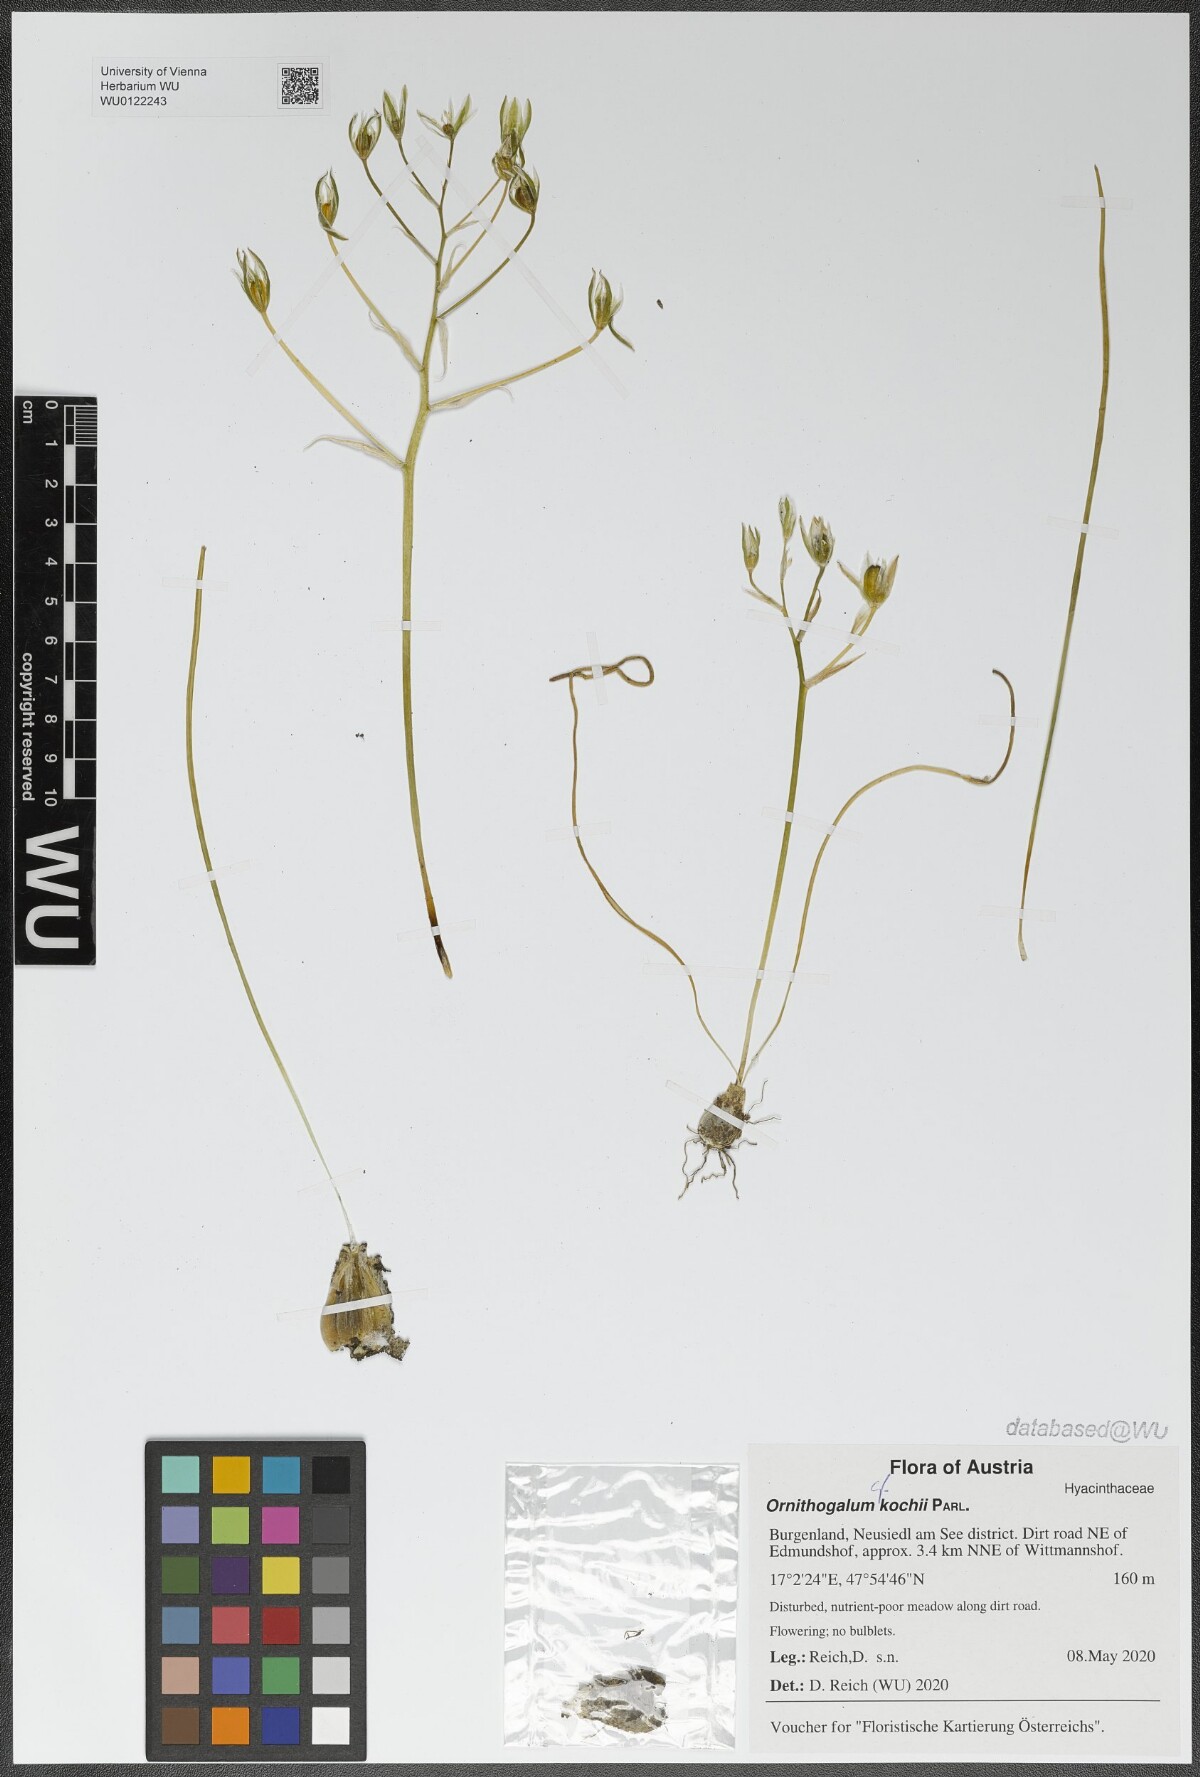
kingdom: Plantae
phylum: Tracheophyta
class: Liliopsida
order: Asparagales
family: Asparagaceae
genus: Ornithogalum
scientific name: Ornithogalum orthophyllum
